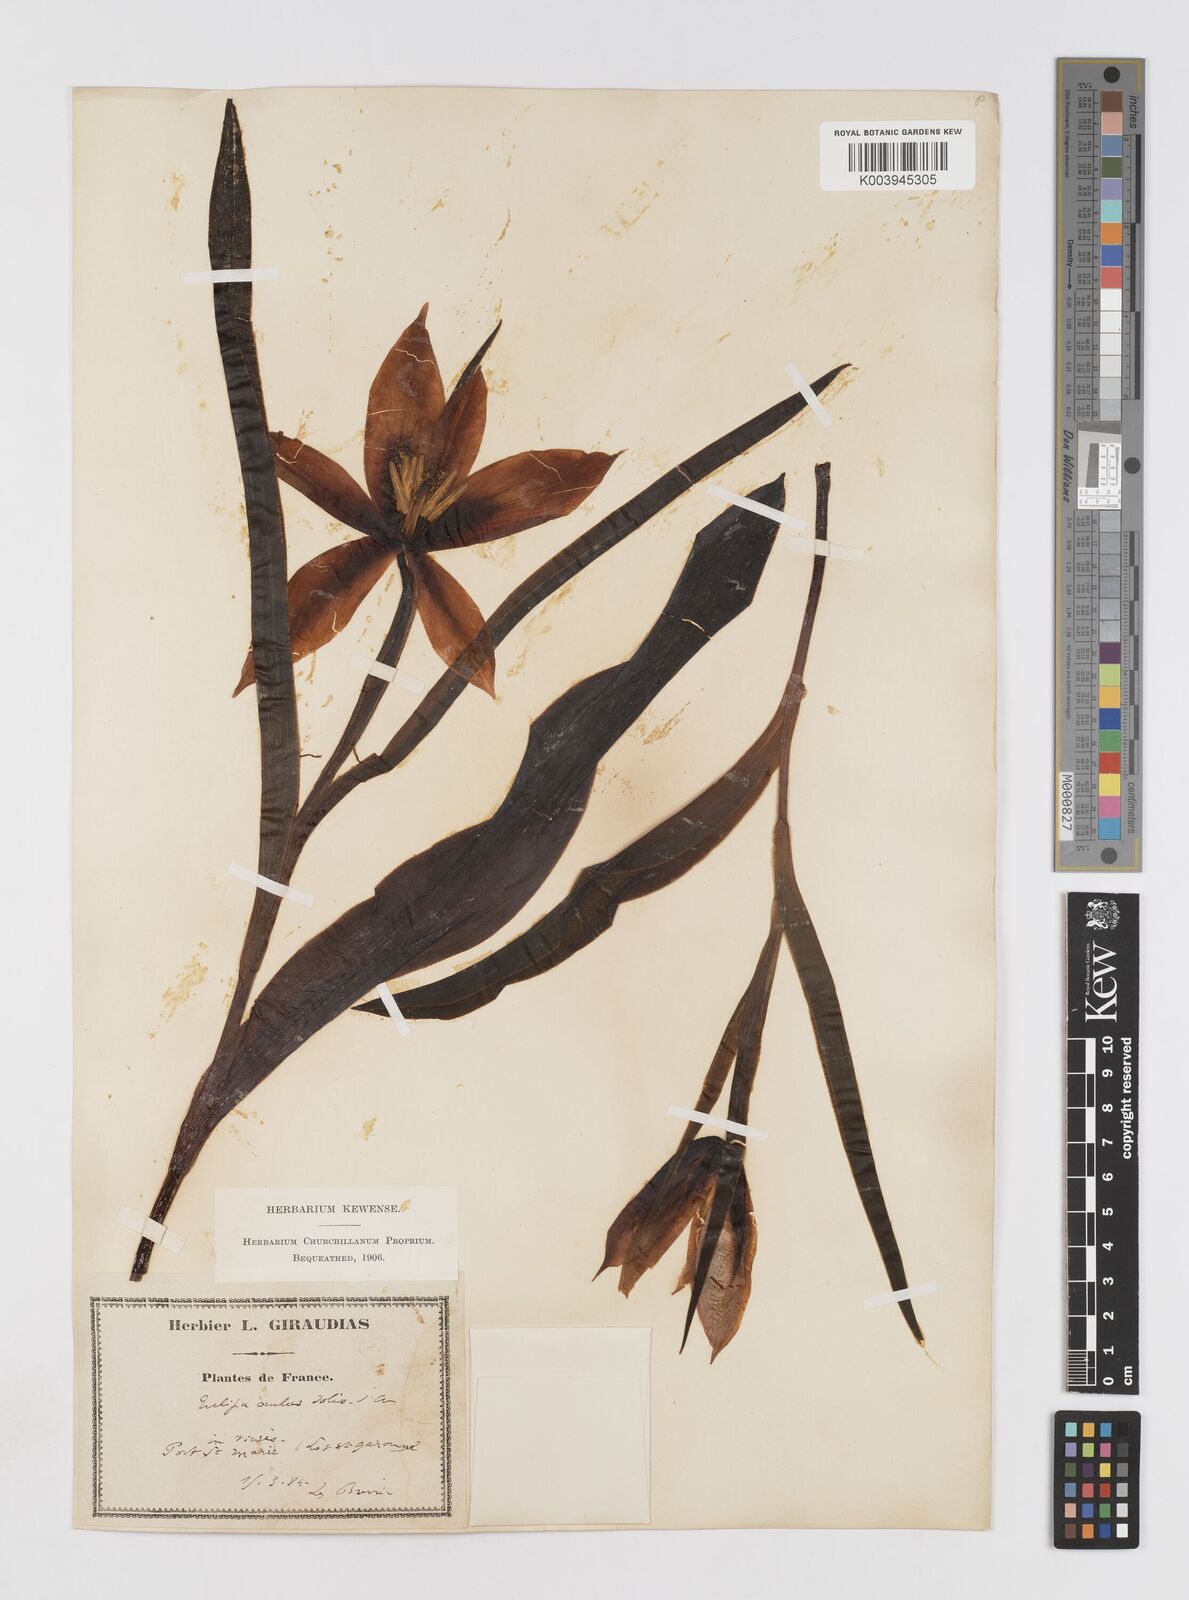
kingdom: Plantae
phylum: Tracheophyta
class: Liliopsida
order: Liliales
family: Liliaceae
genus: Tulipa
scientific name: Tulipa agenensis
